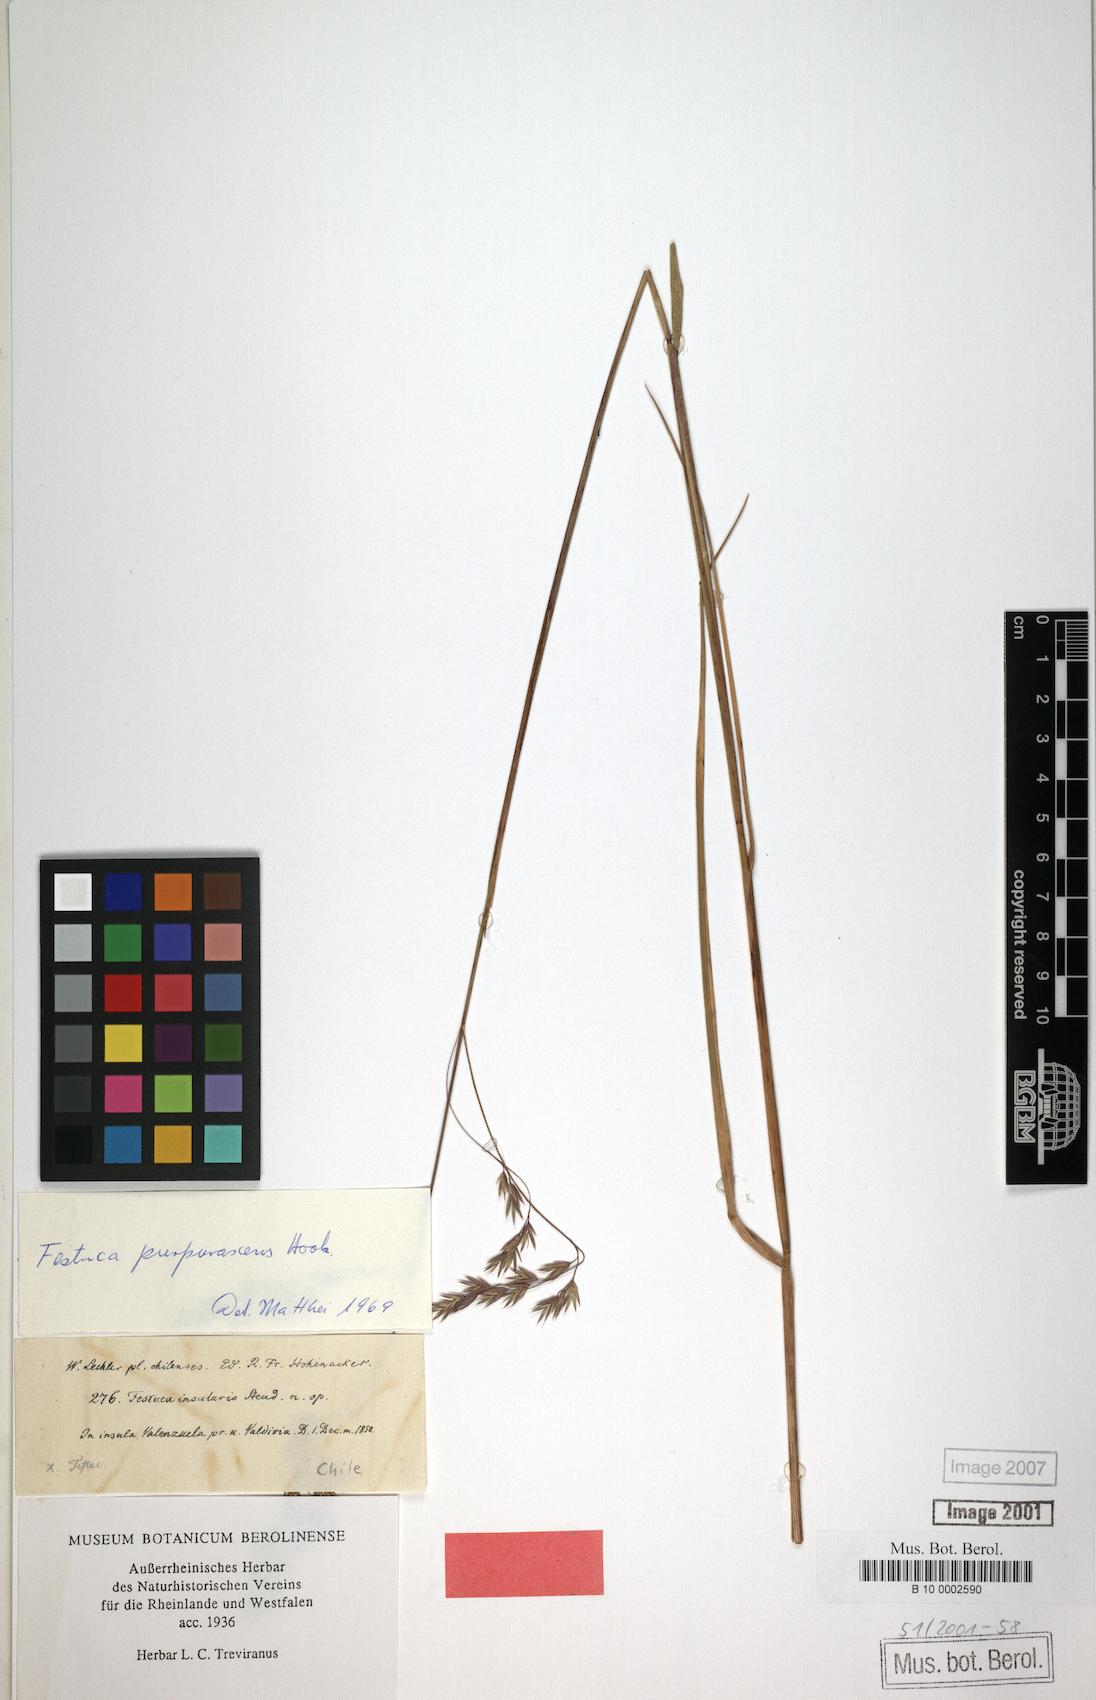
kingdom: Plantae
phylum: Tracheophyta
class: Liliopsida
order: Poales
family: Poaceae
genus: Festuca
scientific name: Festuca
